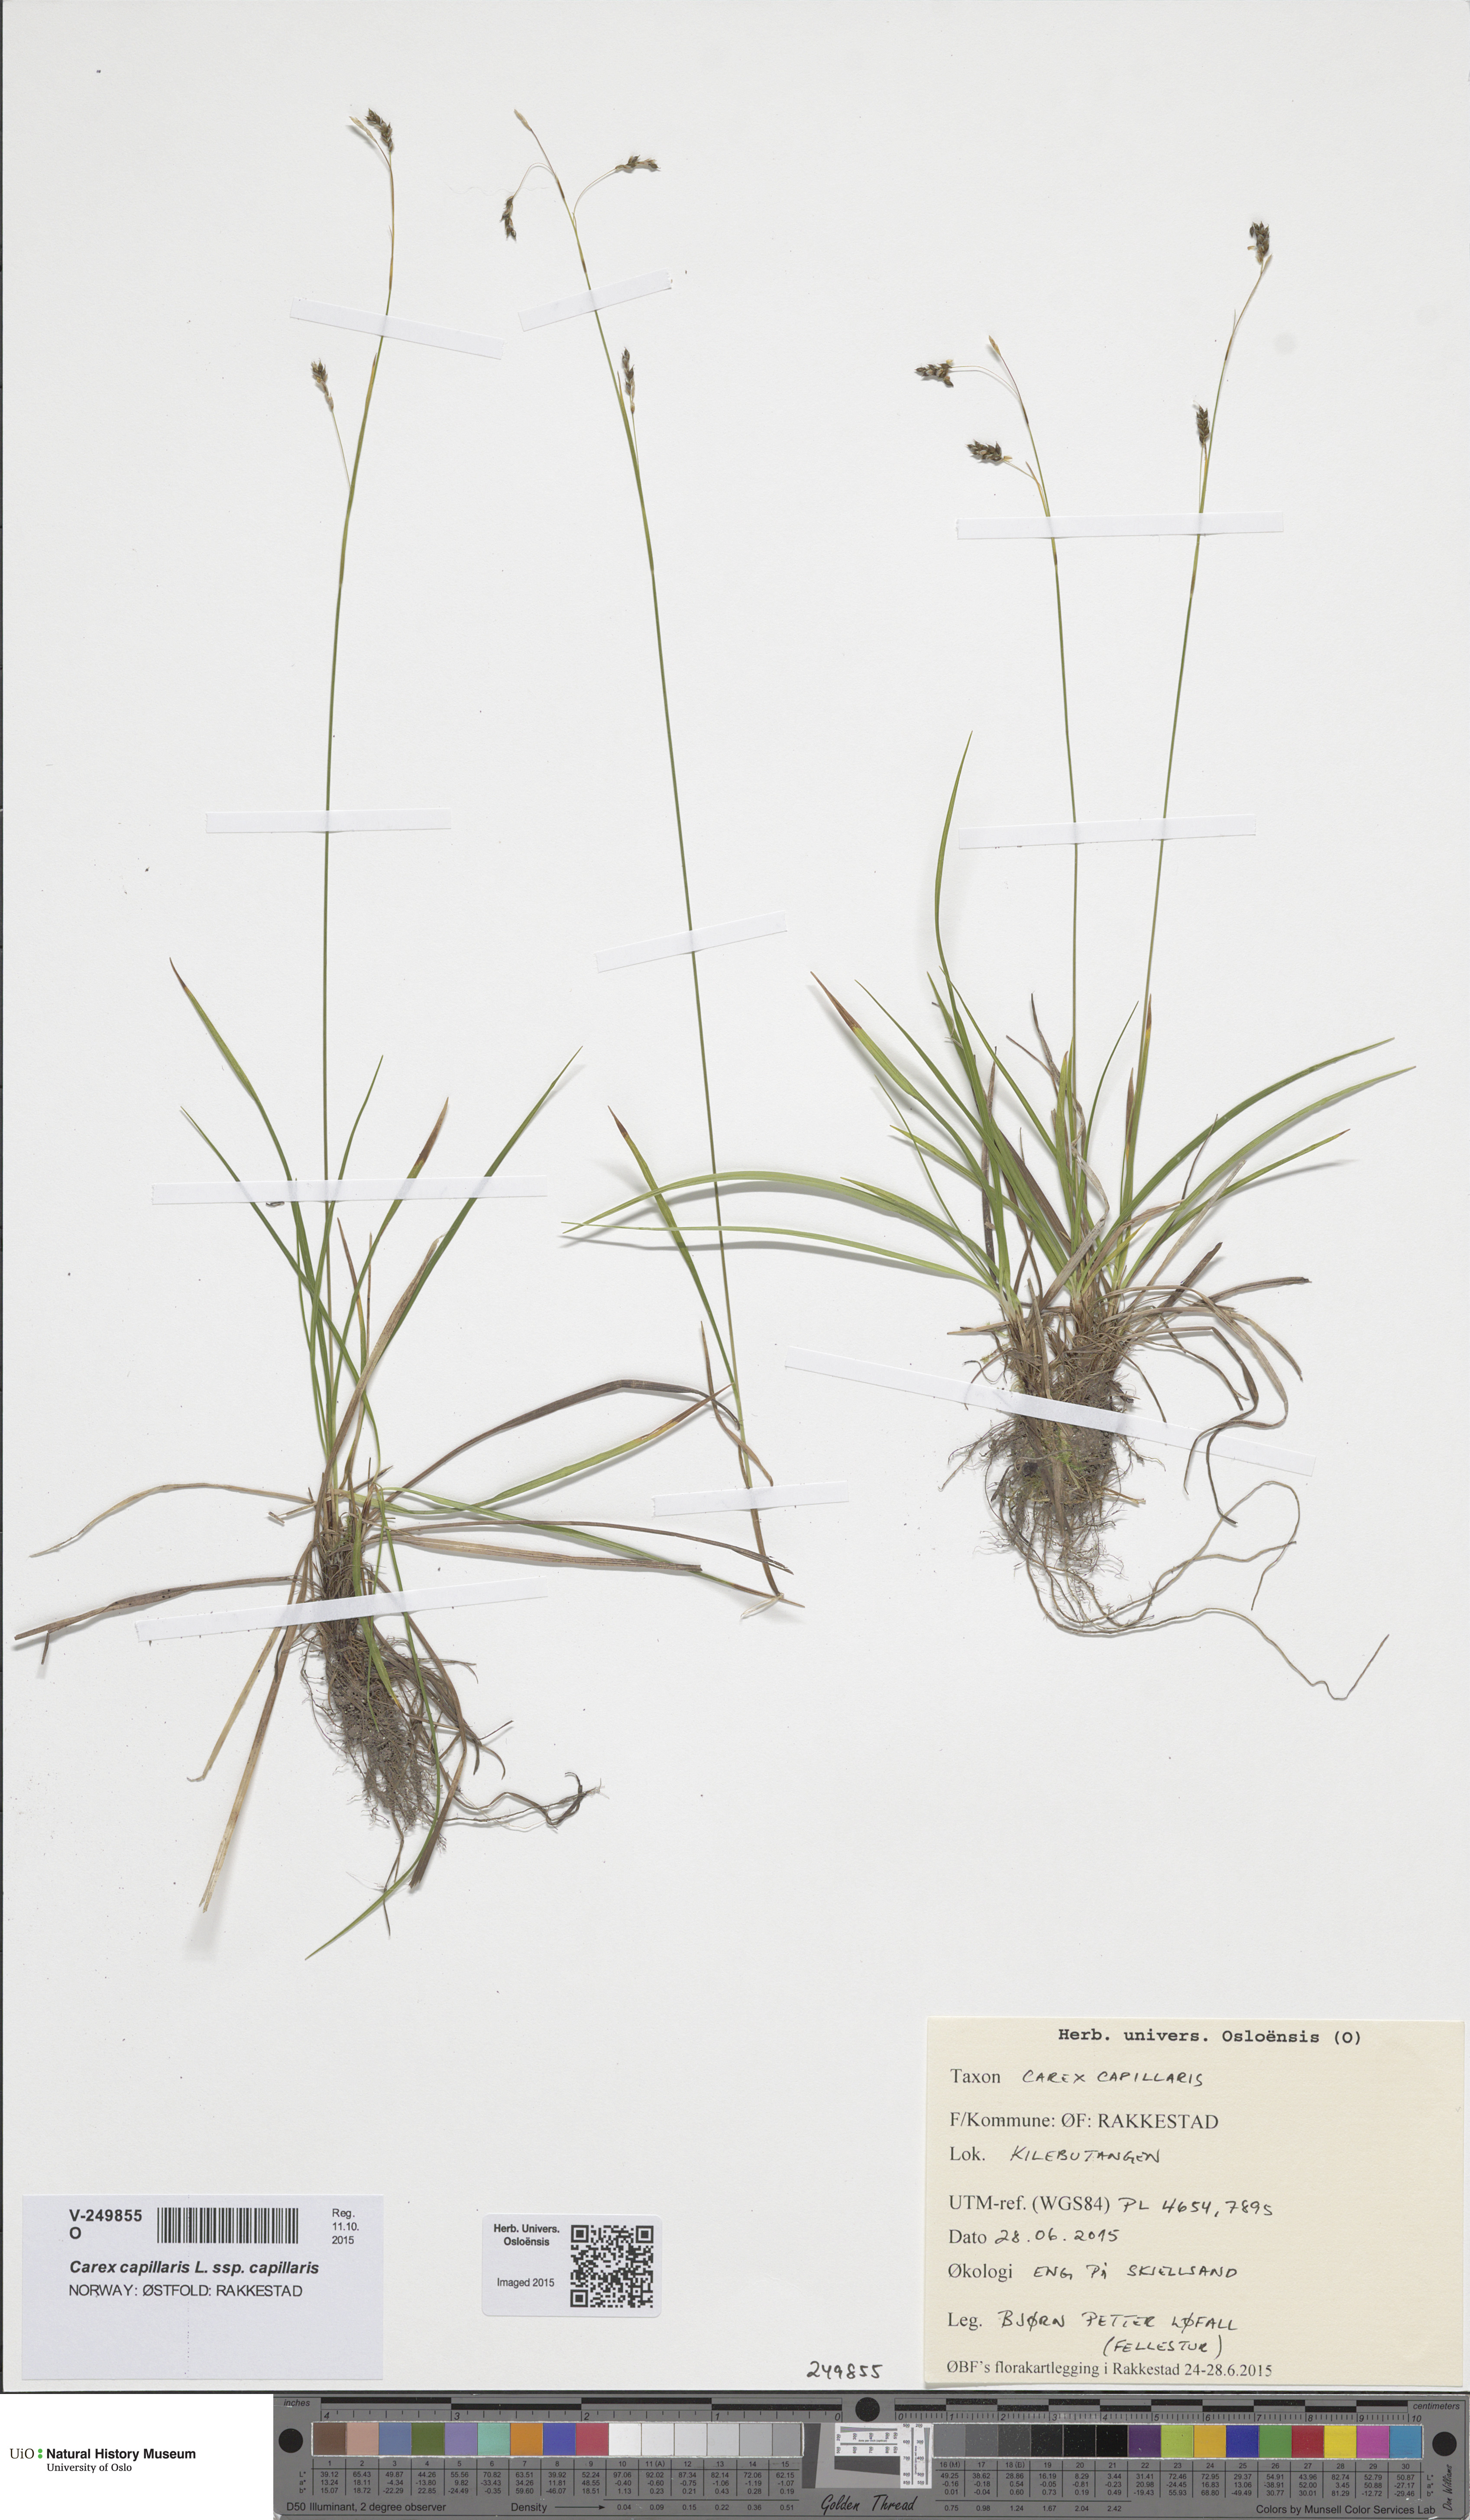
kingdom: Plantae
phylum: Tracheophyta
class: Liliopsida
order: Poales
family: Cyperaceae
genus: Carex
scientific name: Carex capillaris
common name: Hair sedge
